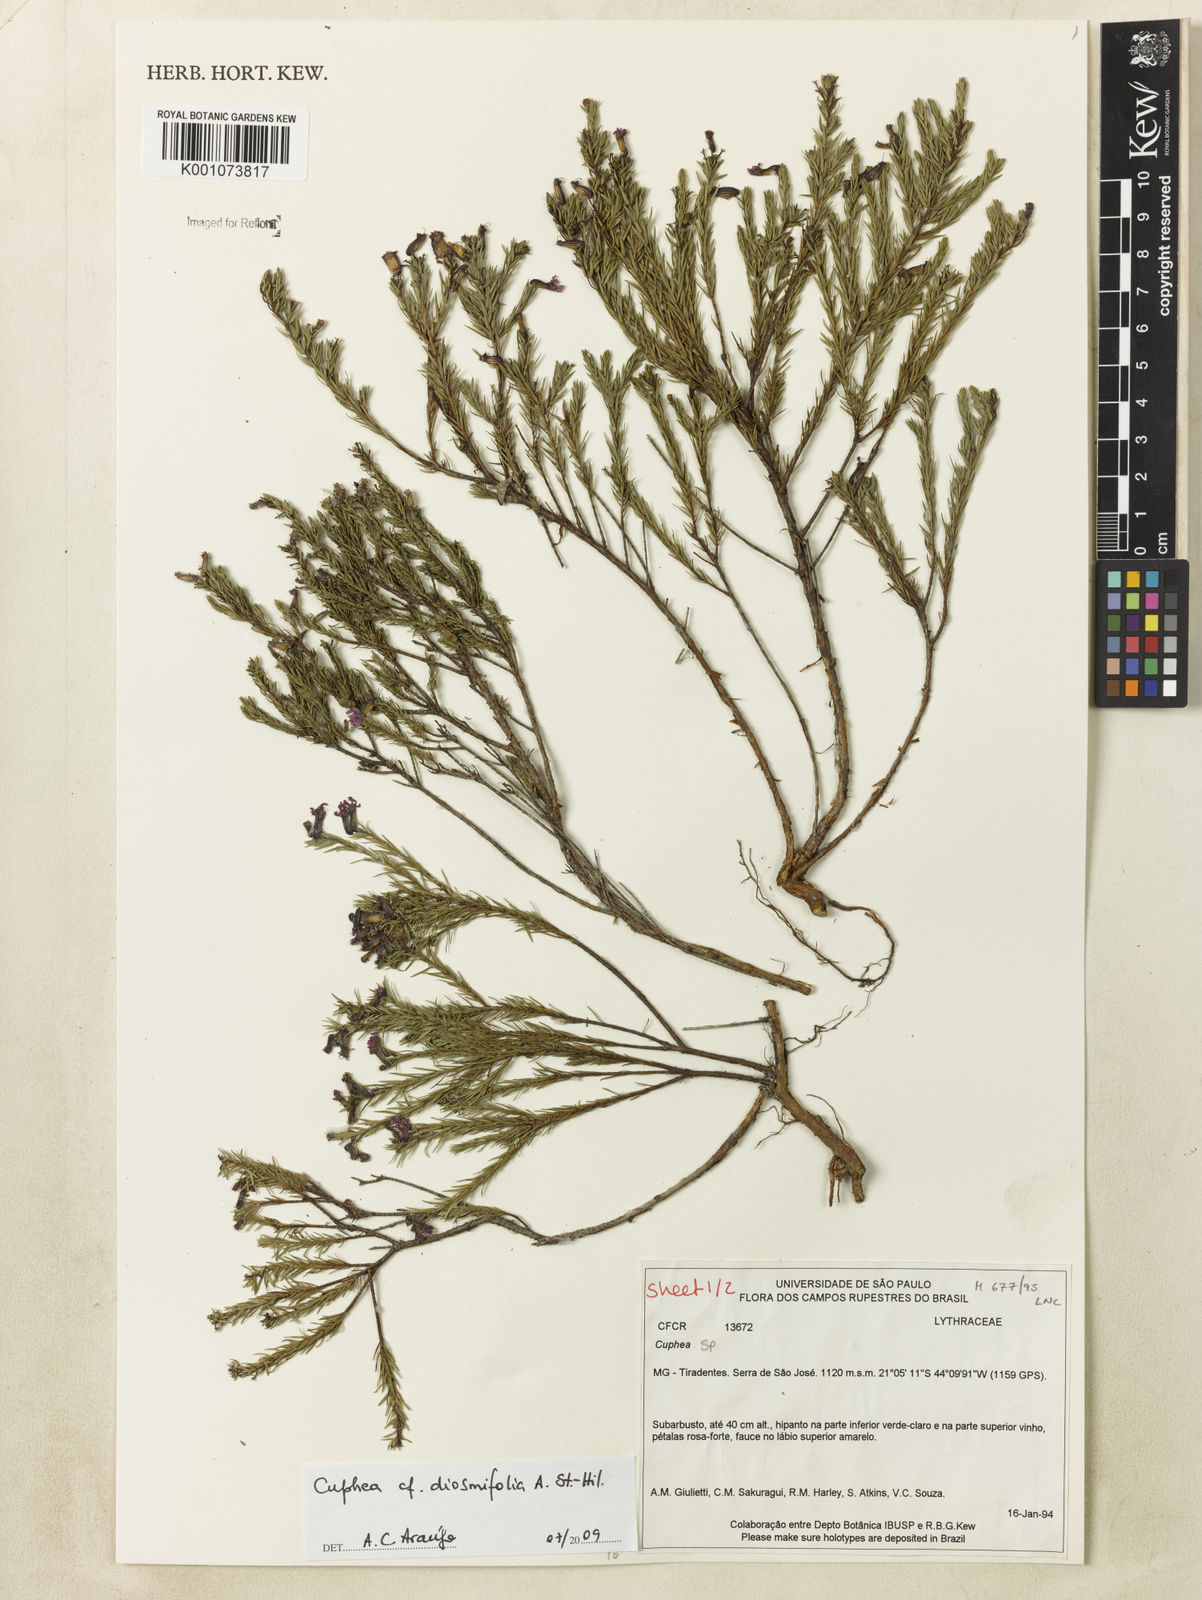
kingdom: Plantae
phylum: Tracheophyta
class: Magnoliopsida
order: Myrtales
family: Lythraceae
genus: Cuphea
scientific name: Cuphea diosmifolia
